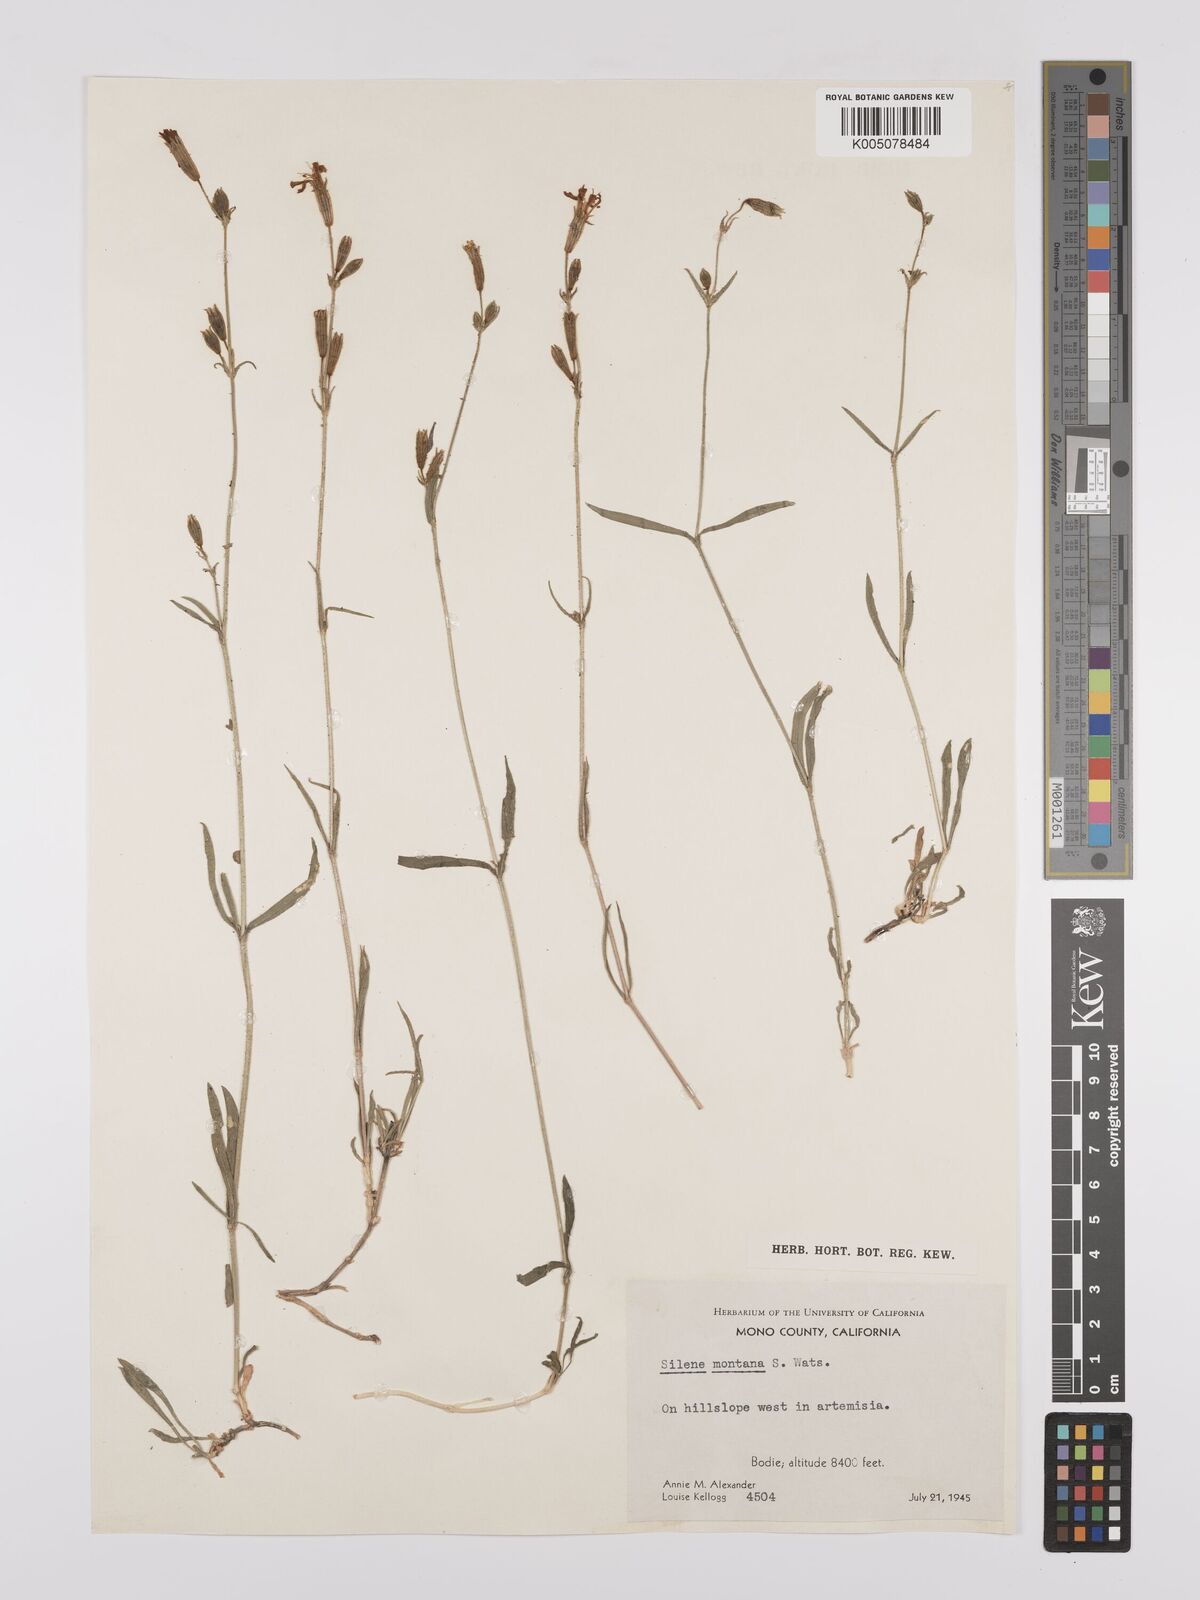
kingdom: Plantae
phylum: Tracheophyta
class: Magnoliopsida
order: Caryophyllales
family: Caryophyllaceae
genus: Silene
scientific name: Silene hitchguirei
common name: Mountain catchfly
